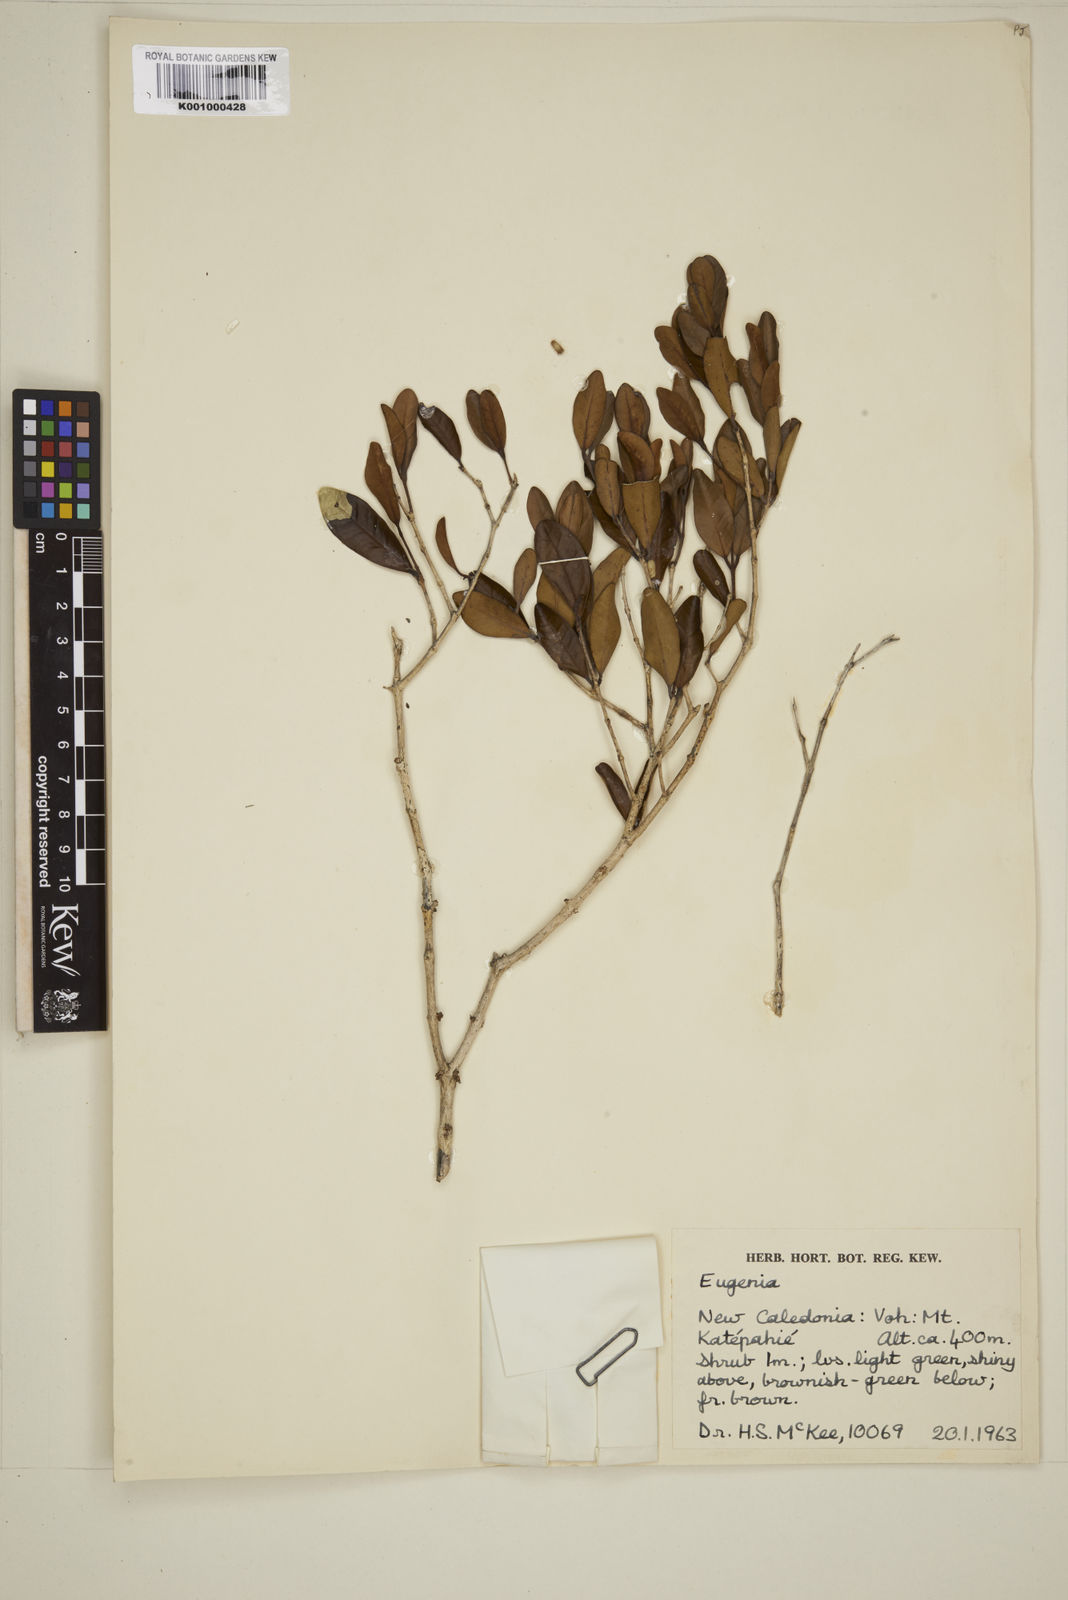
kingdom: Plantae
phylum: Tracheophyta
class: Magnoliopsida
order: Myrtales
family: Myrtaceae
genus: Eugenia
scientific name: Eugenia
